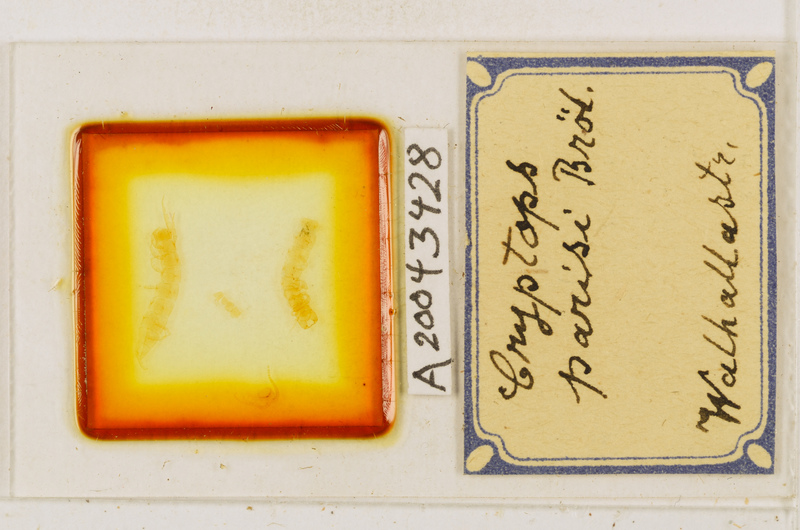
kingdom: Animalia
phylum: Arthropoda
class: Chilopoda
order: Scolopendromorpha
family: Cryptopidae
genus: Cryptops
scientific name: Cryptops parisi
